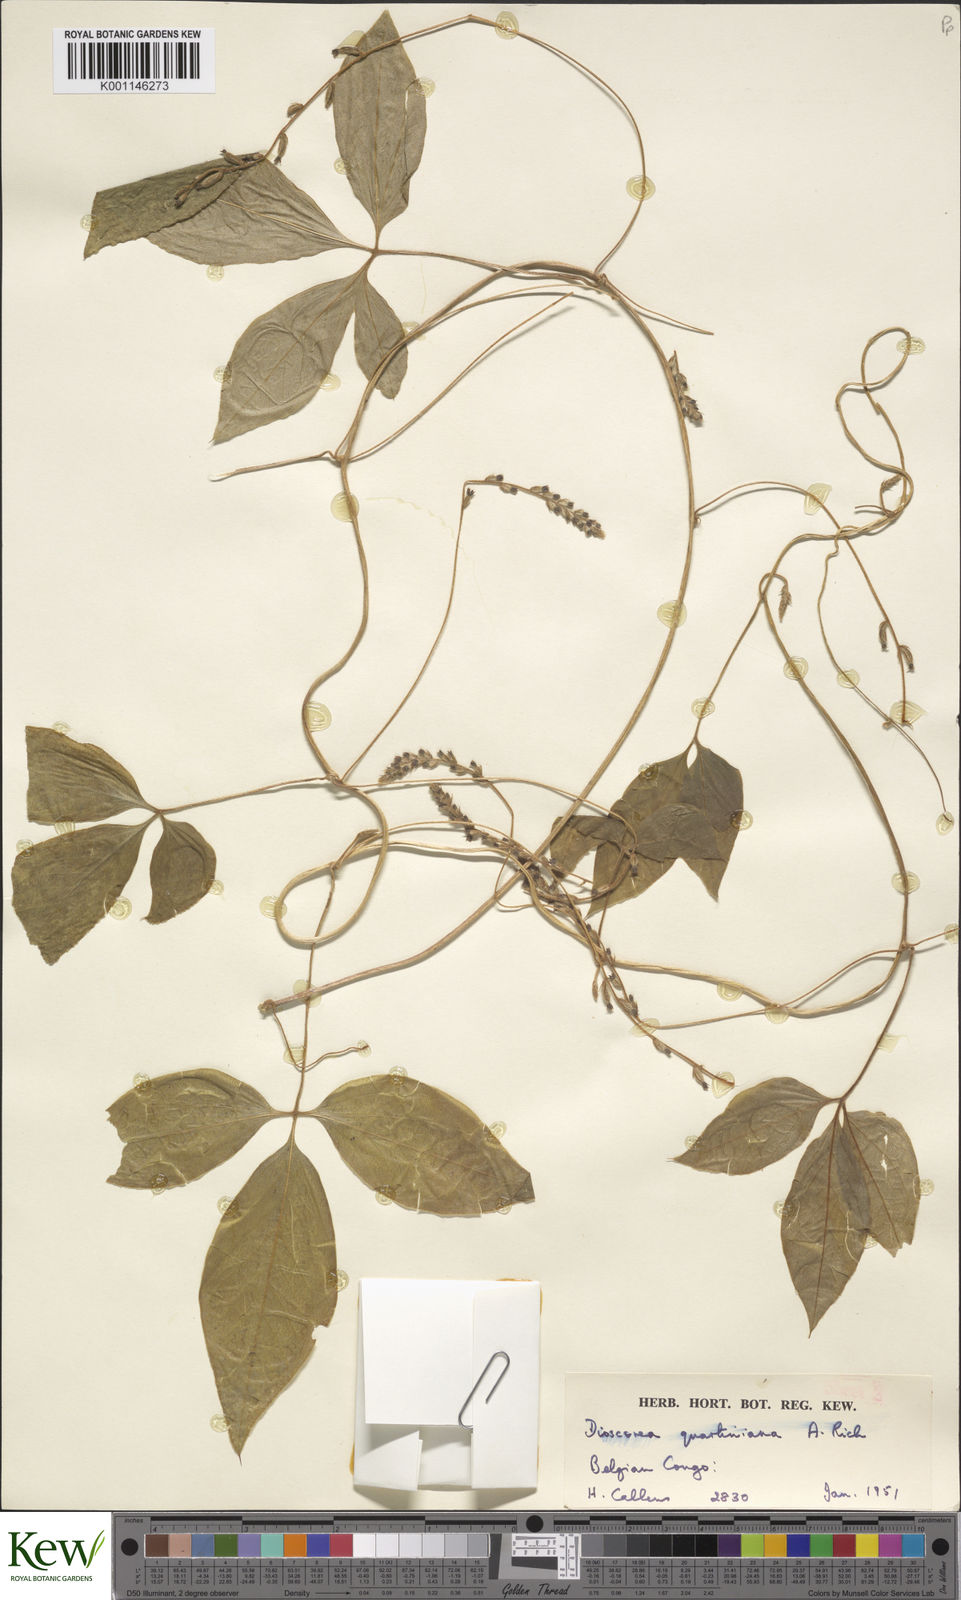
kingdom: Plantae
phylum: Tracheophyta
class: Liliopsida
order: Dioscoreales
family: Dioscoreaceae
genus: Dioscorea
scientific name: Dioscorea quartiniana
